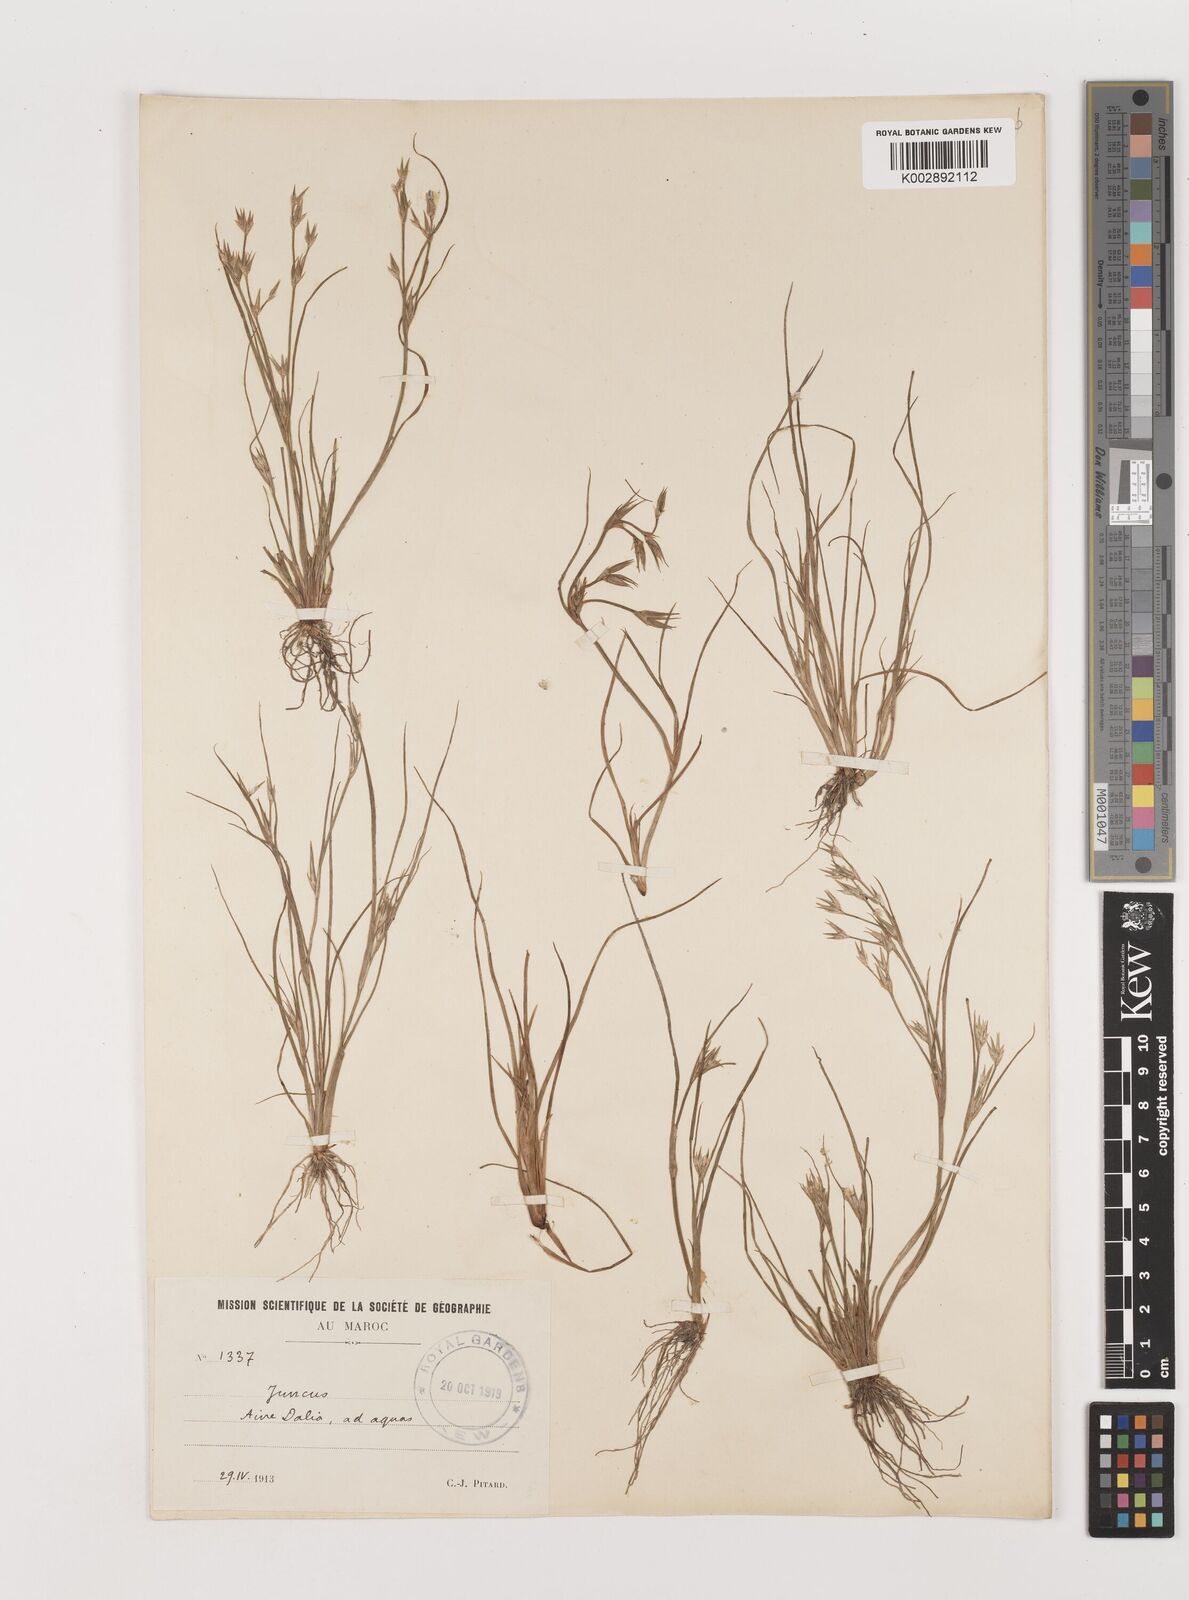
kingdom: Plantae
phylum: Tracheophyta
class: Liliopsida
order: Poales
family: Juncaceae
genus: Juncus
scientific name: Juncus
